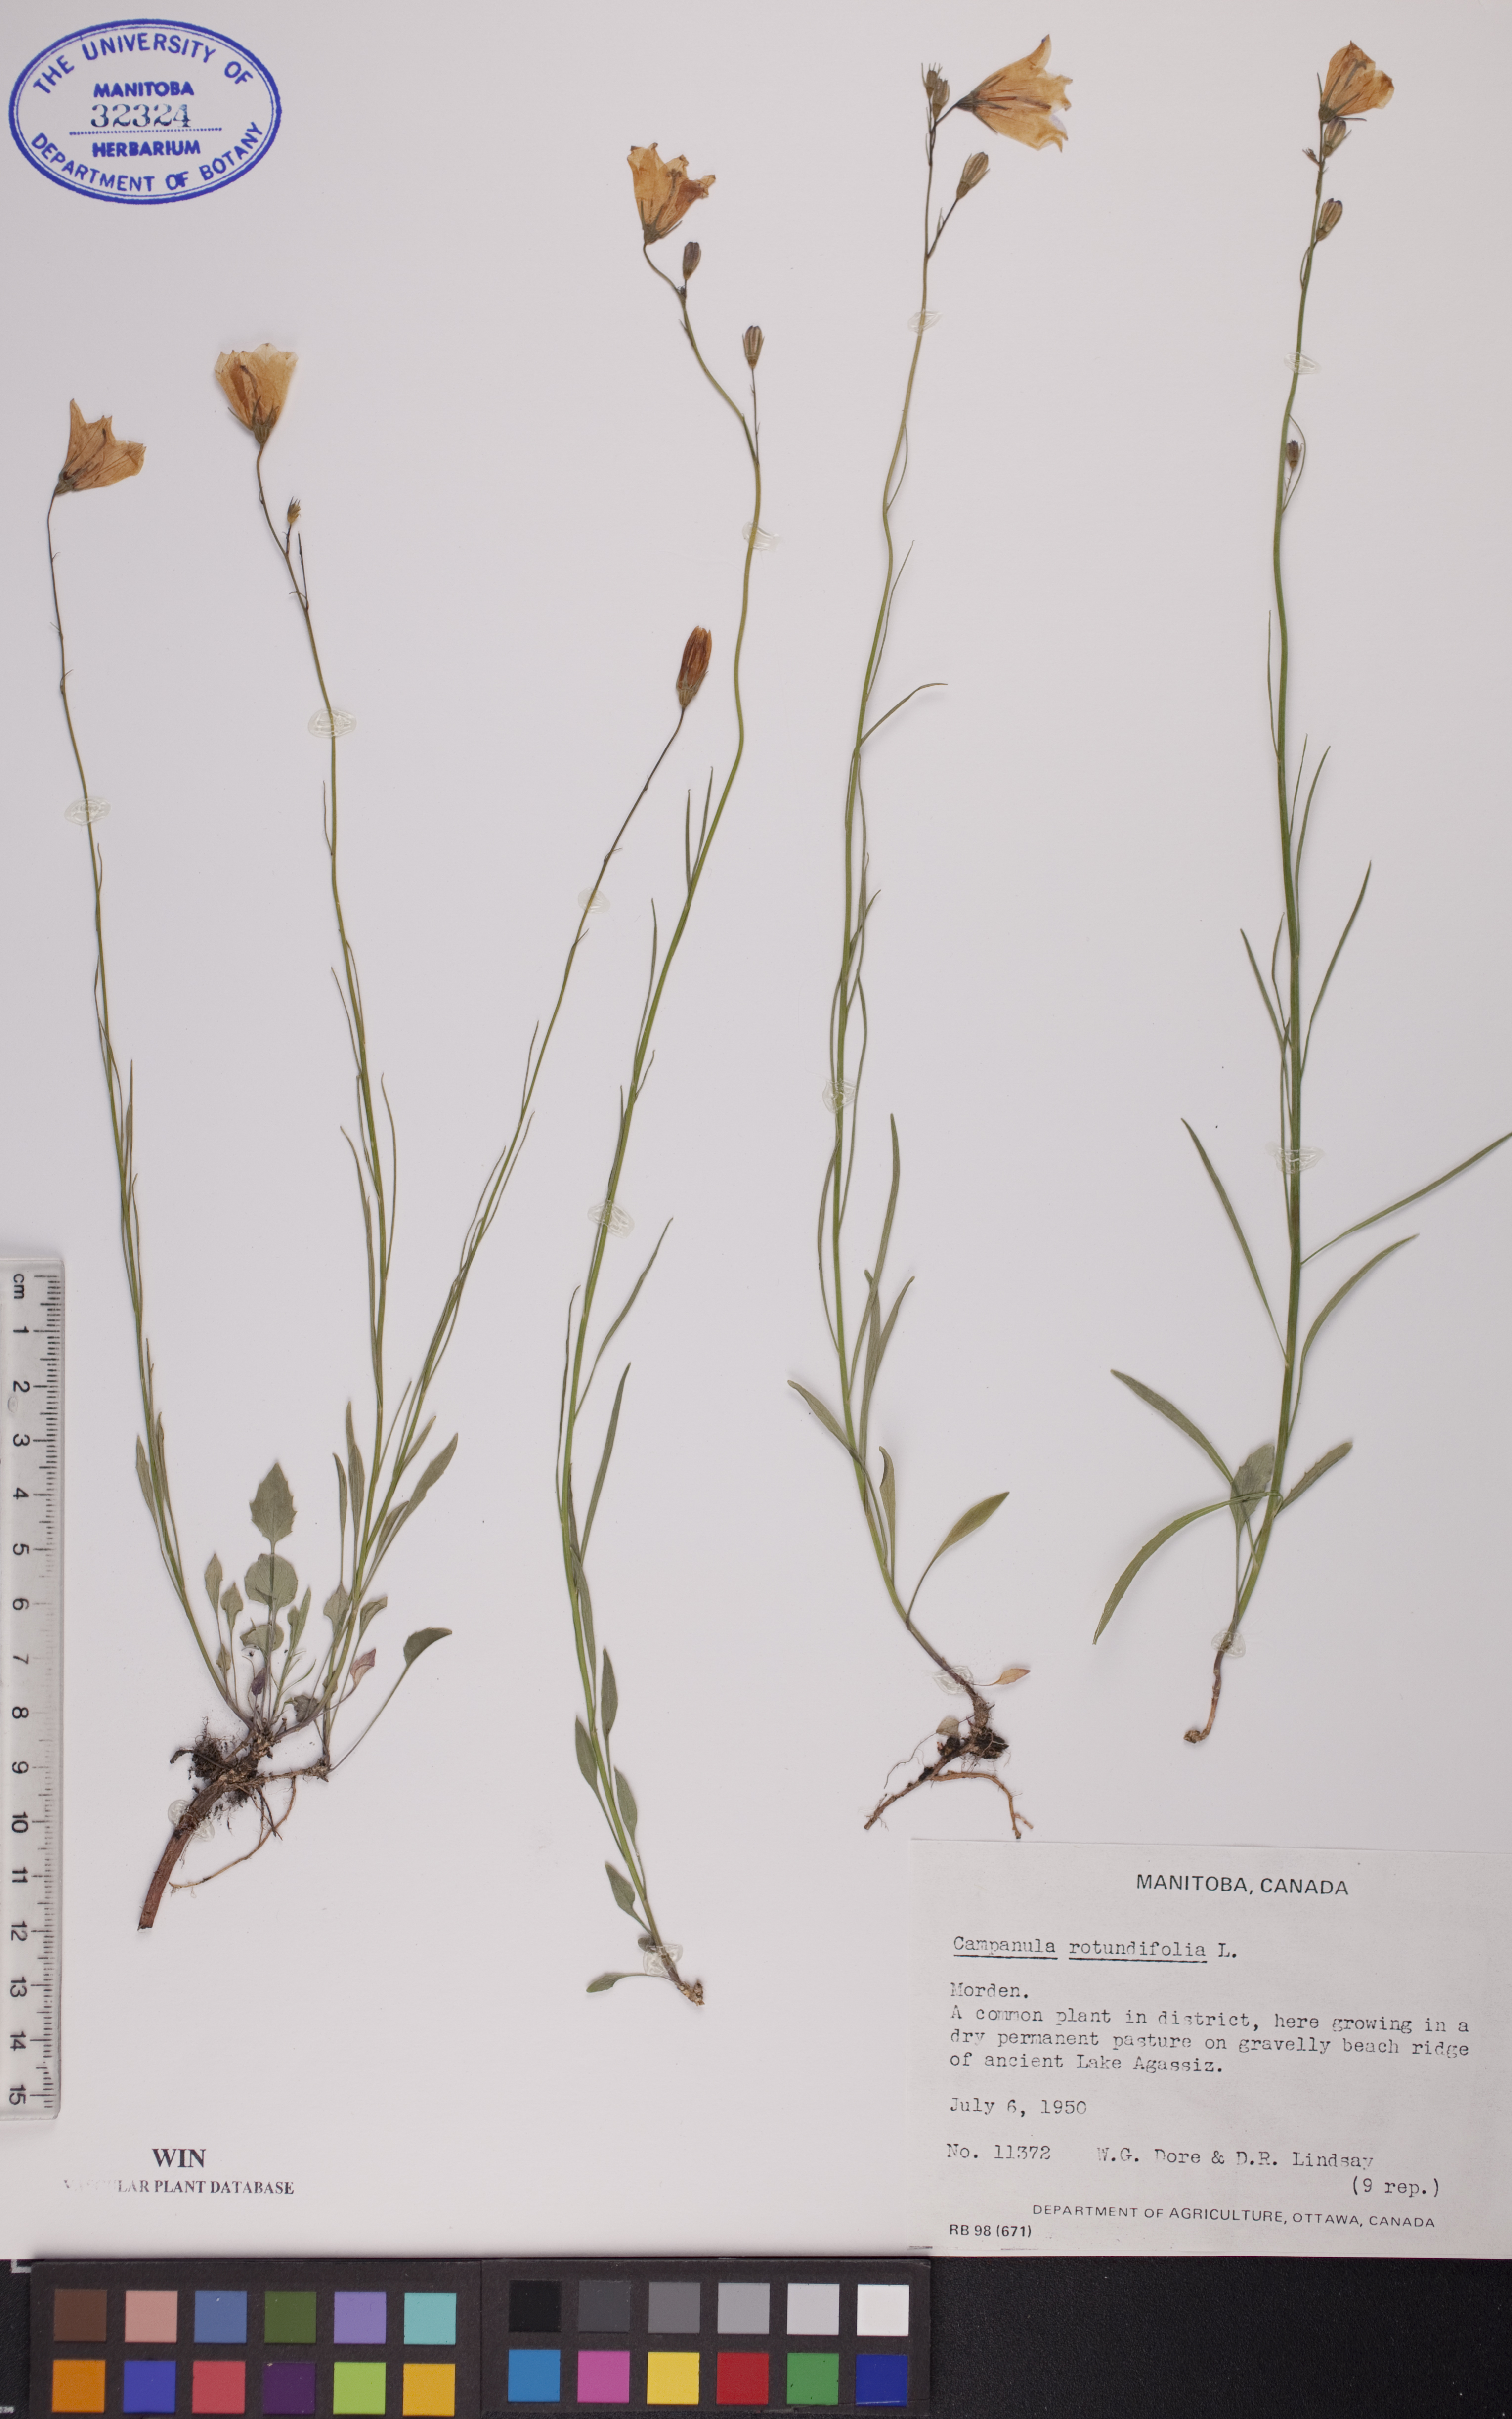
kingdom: Plantae
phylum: Tracheophyta
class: Magnoliopsida
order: Asterales
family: Campanulaceae
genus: Campanula
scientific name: Campanula rotundifolia
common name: Harebell
